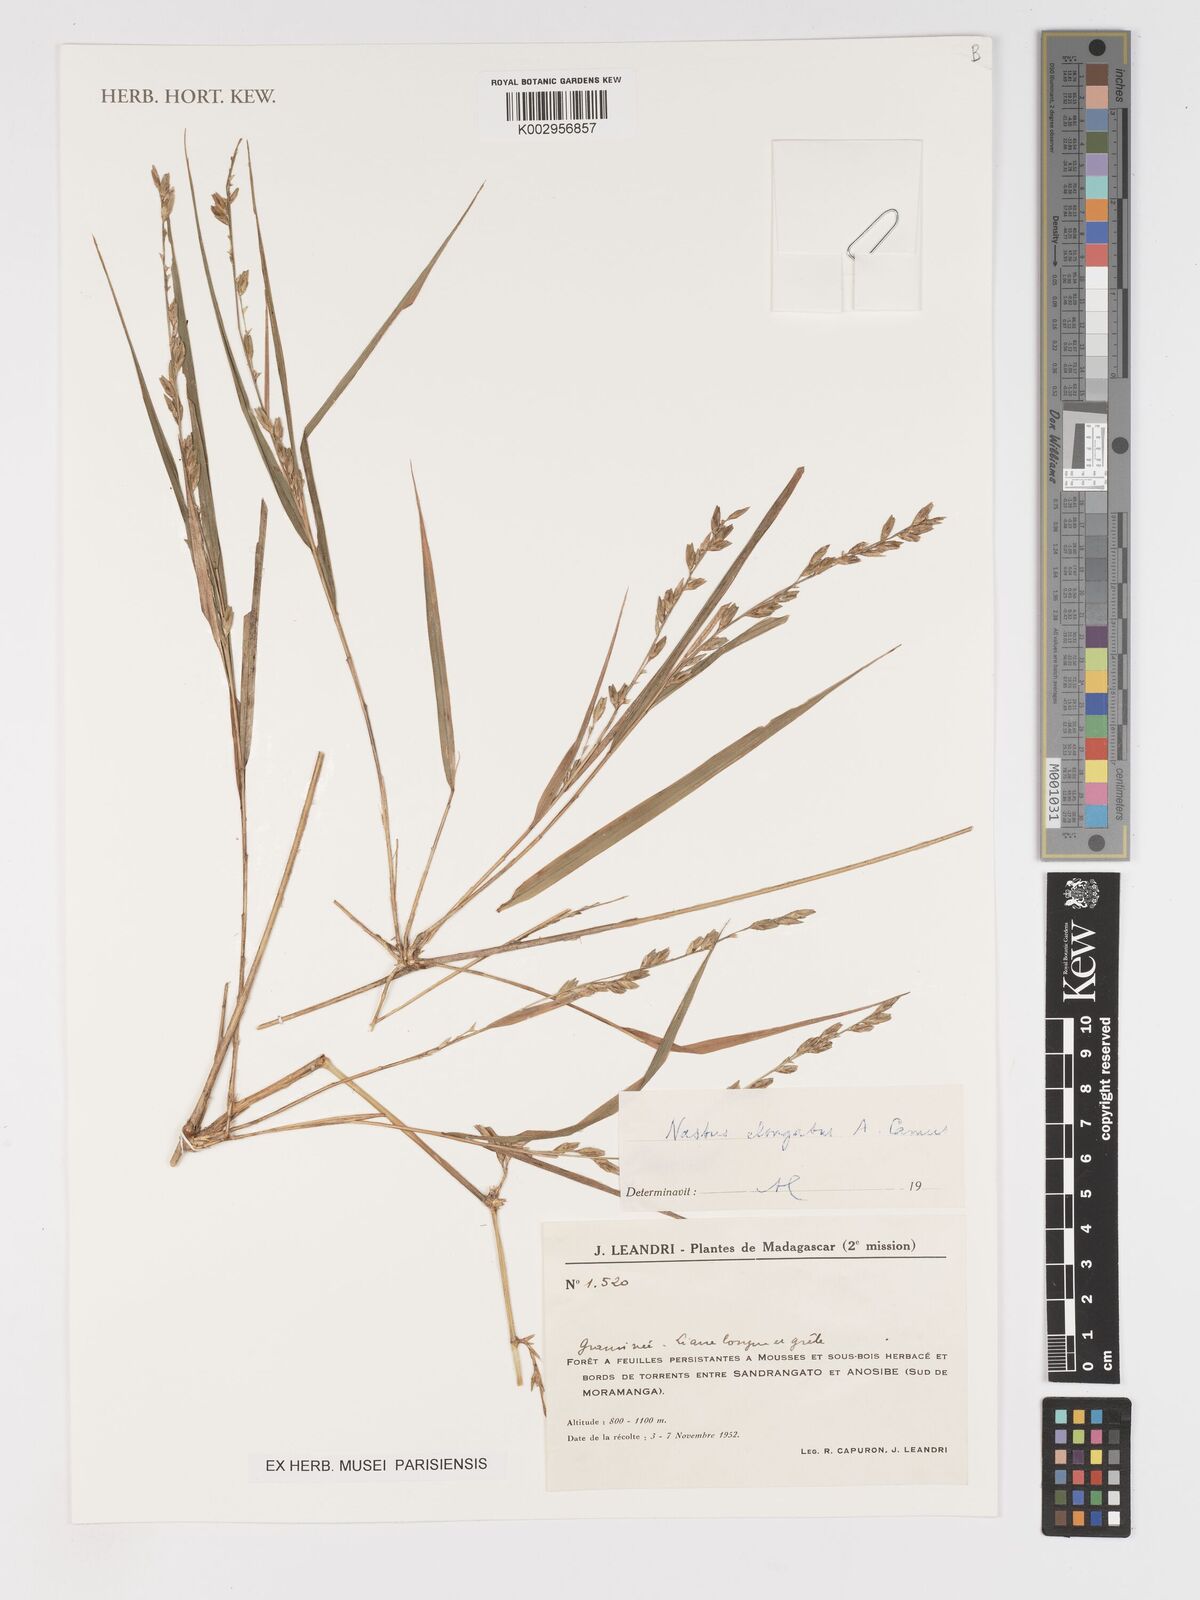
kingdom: Plantae
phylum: Tracheophyta
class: Liliopsida
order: Poales
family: Poaceae
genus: Nastus
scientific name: Nastus elongatus
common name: Spider bamboo
